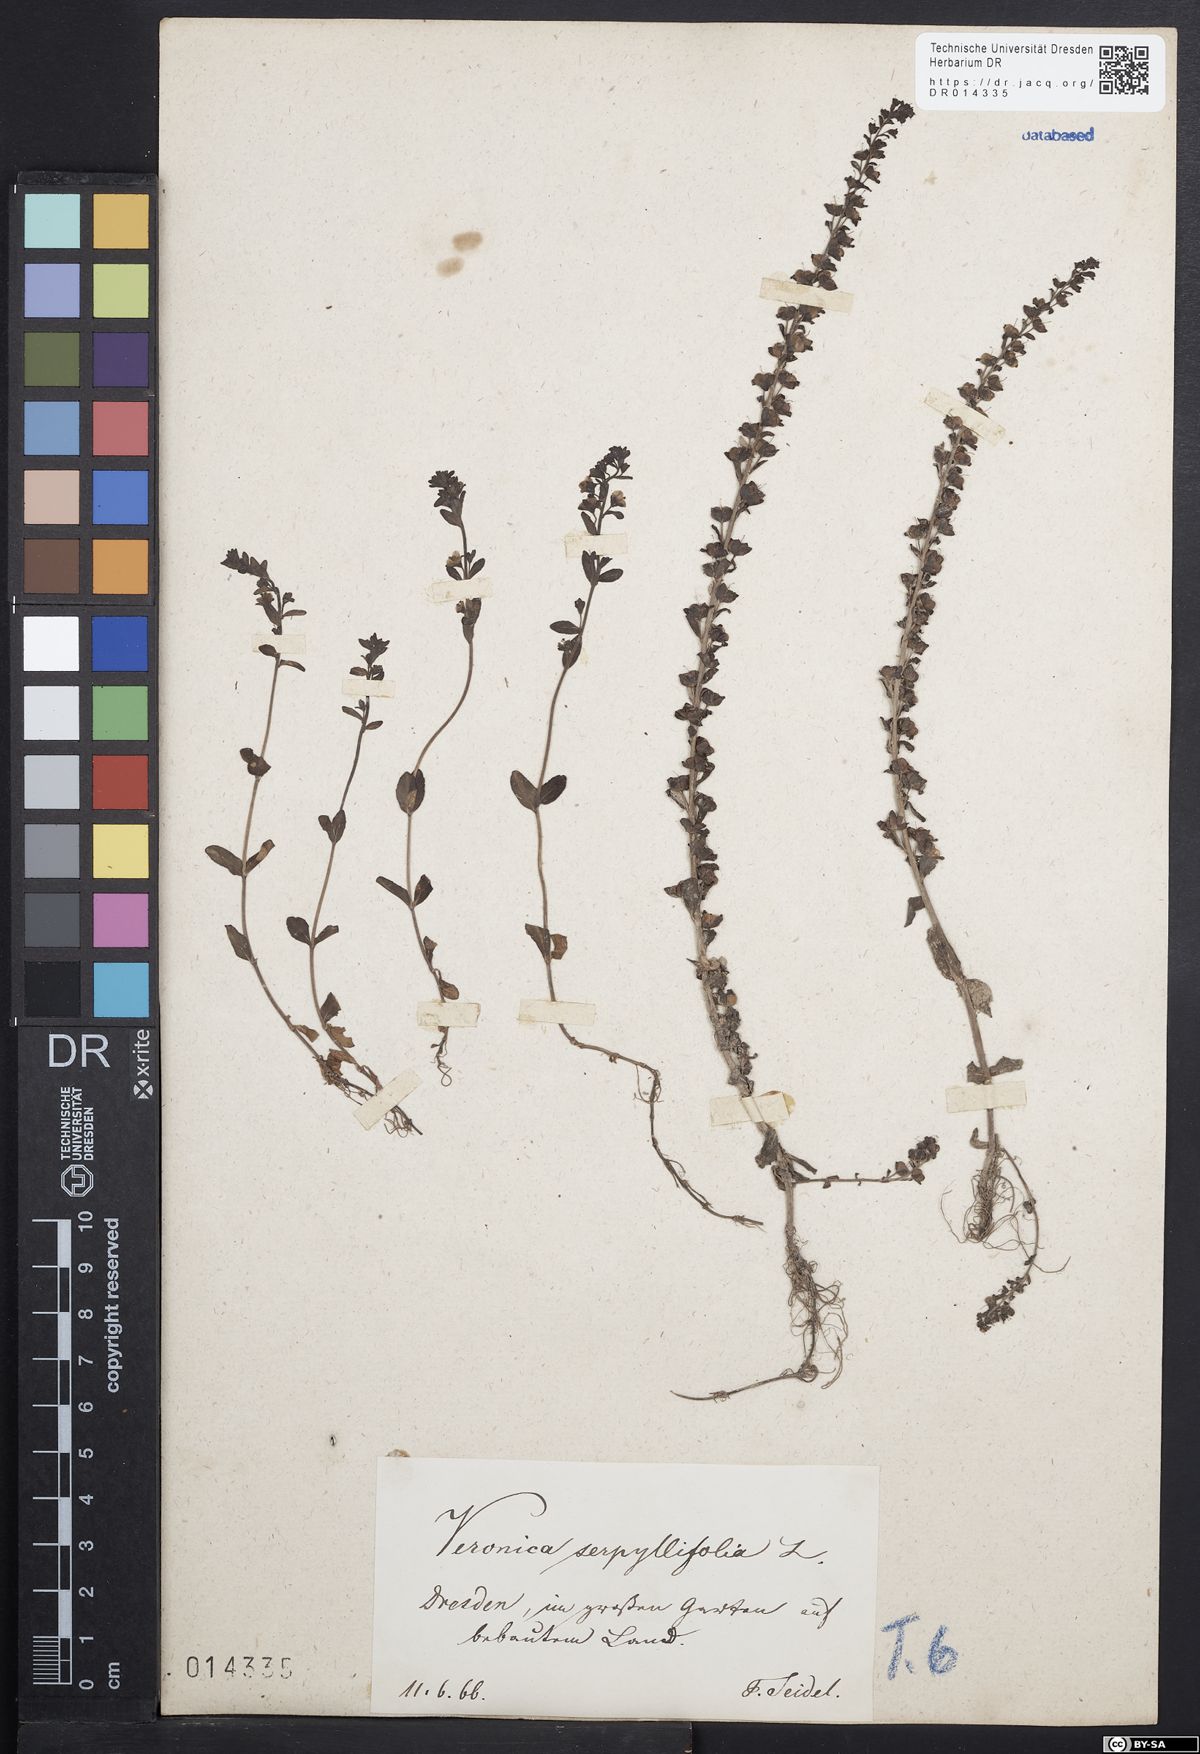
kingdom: Plantae
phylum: Tracheophyta
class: Magnoliopsida
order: Lamiales
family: Plantaginaceae
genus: Veronica
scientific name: Veronica serpyllifolia
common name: Thyme-leaved speedwell
